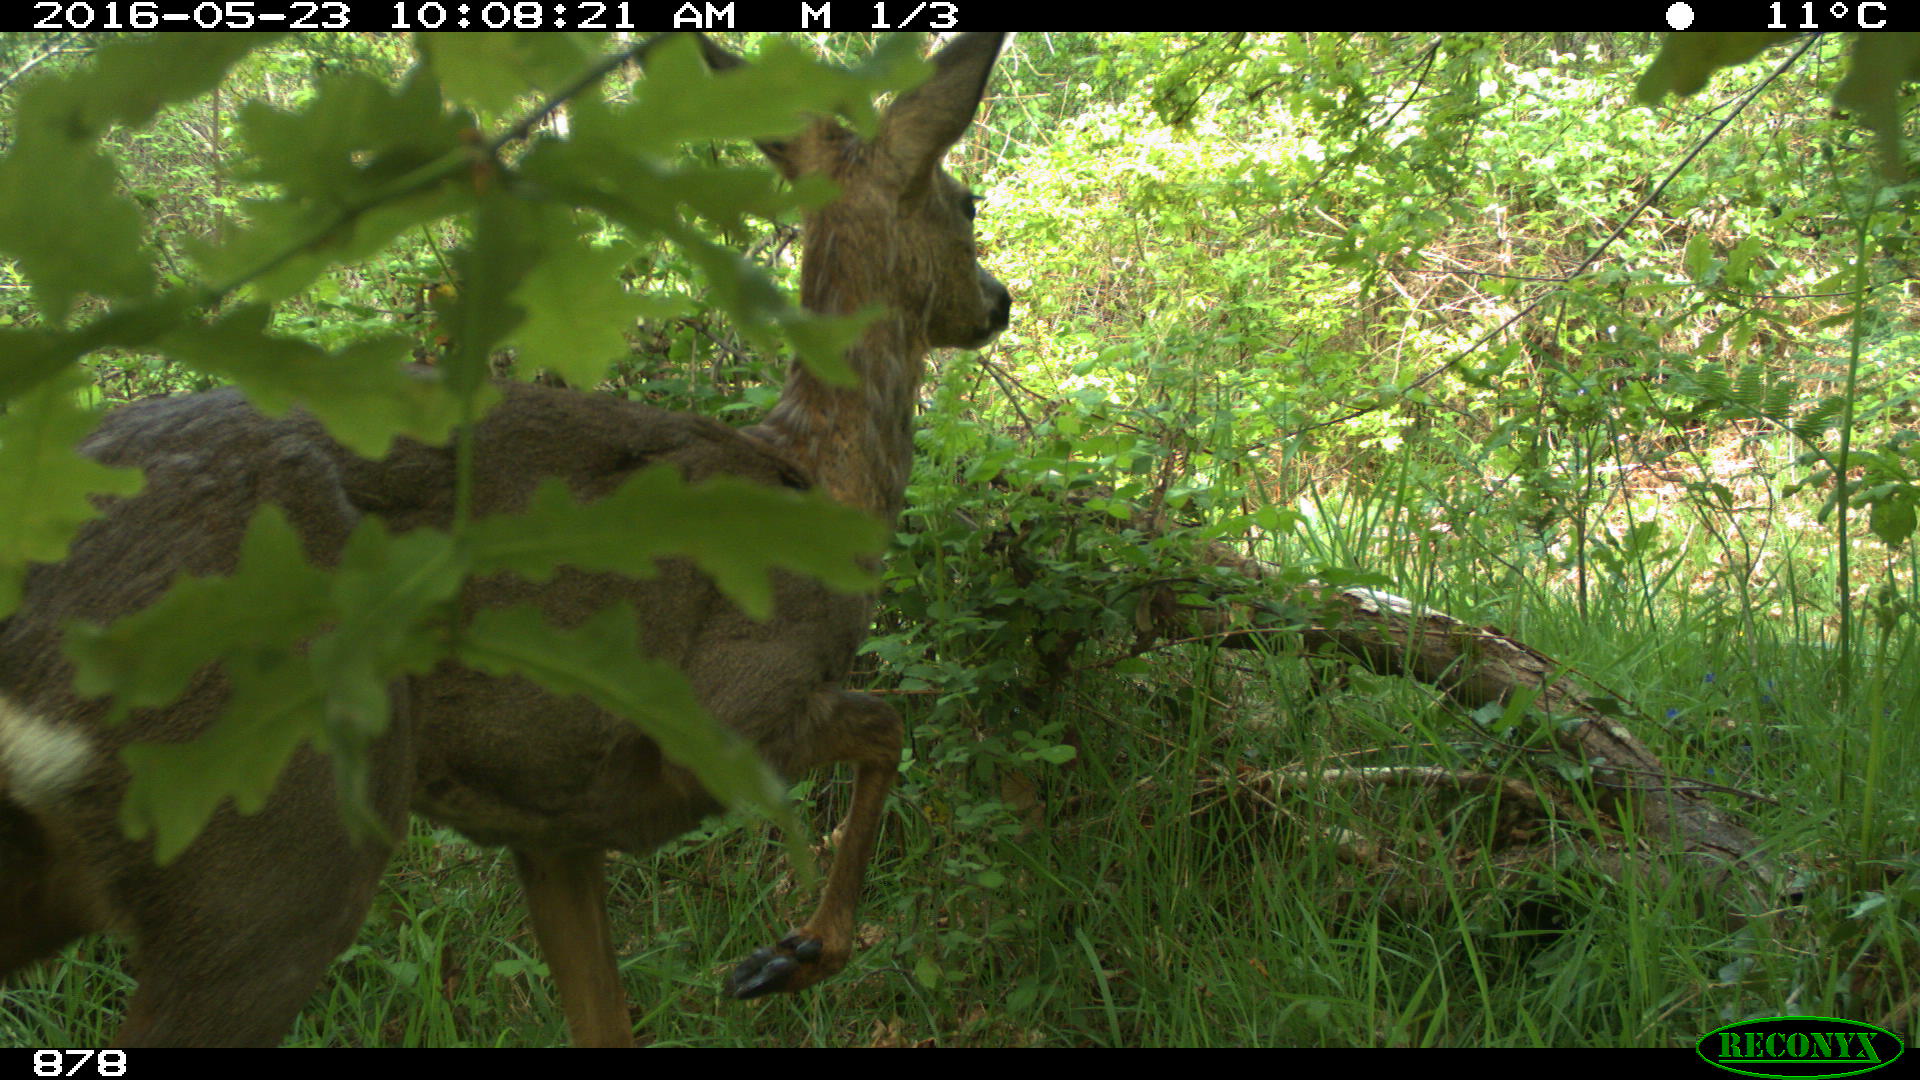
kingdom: Animalia
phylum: Chordata
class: Mammalia
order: Artiodactyla
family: Cervidae
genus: Capreolus
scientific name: Capreolus capreolus
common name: Western roe deer
